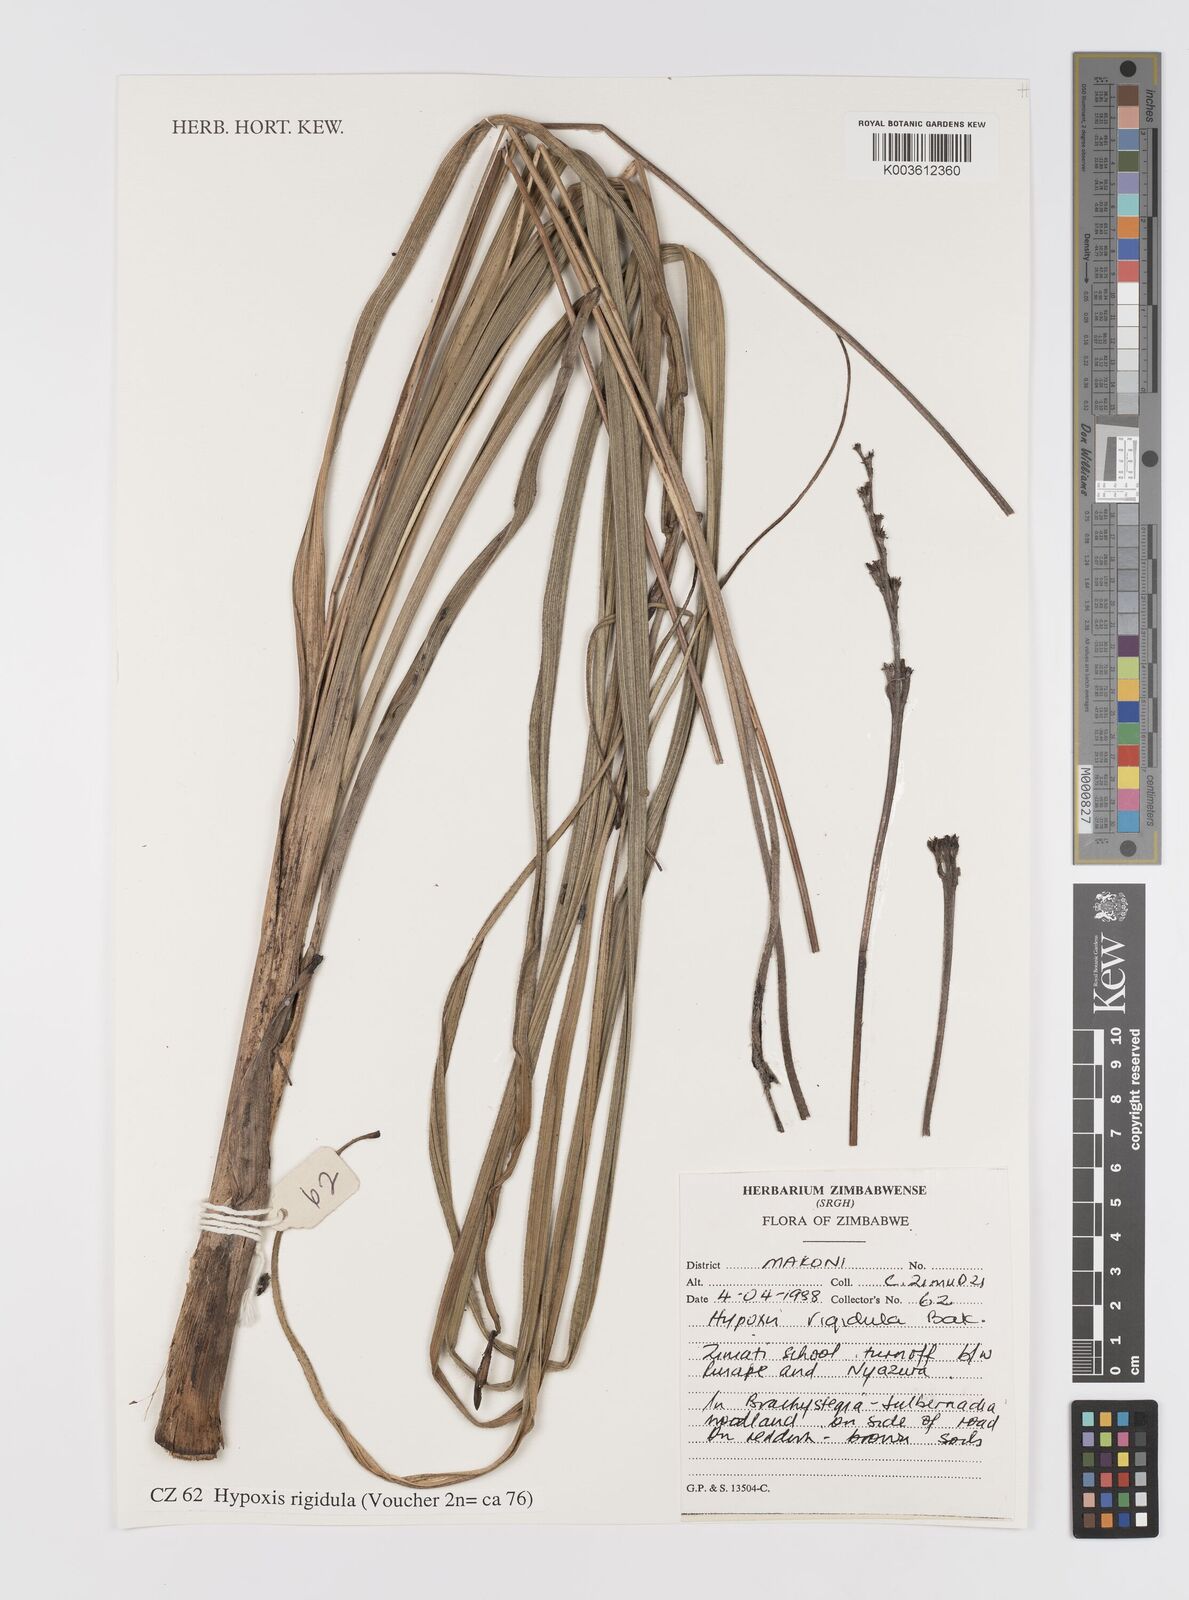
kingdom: Plantae
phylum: Tracheophyta
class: Liliopsida
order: Asparagales
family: Hypoxidaceae
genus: Hypoxis
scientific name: Hypoxis rigidula
